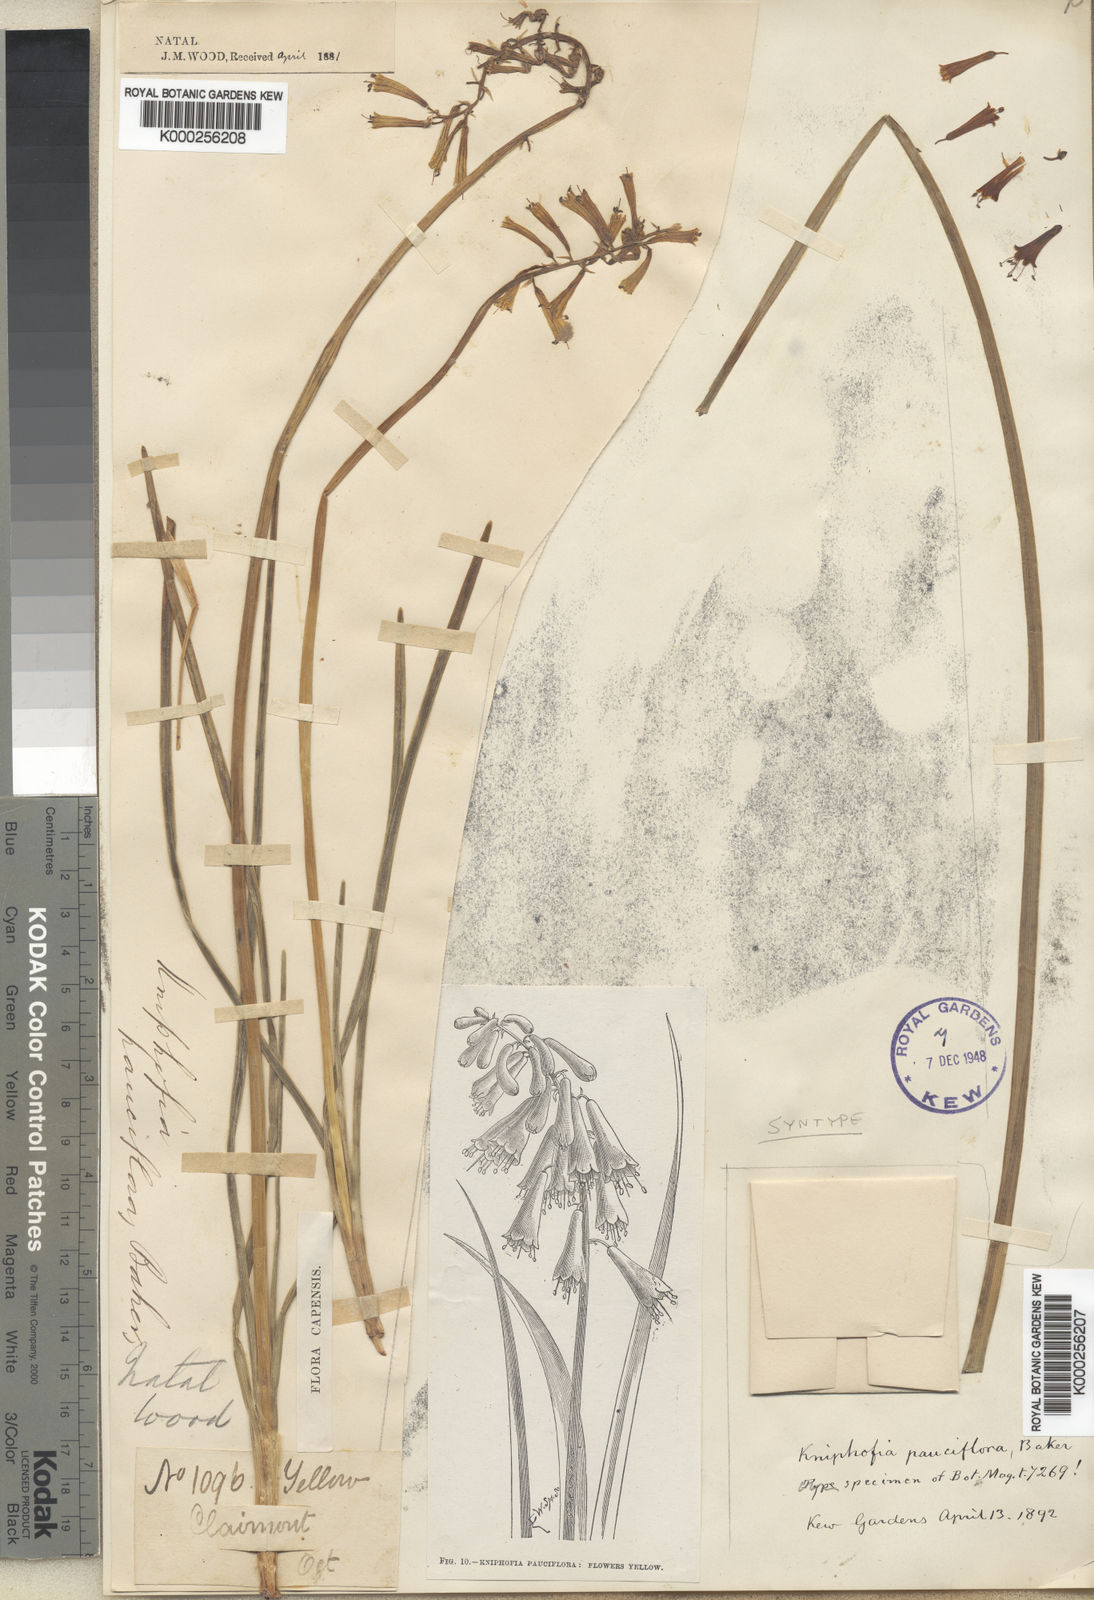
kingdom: Plantae
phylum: Tracheophyta
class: Liliopsida
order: Asparagales
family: Asphodelaceae
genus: Kniphofia
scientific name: Kniphofia pauciflora
